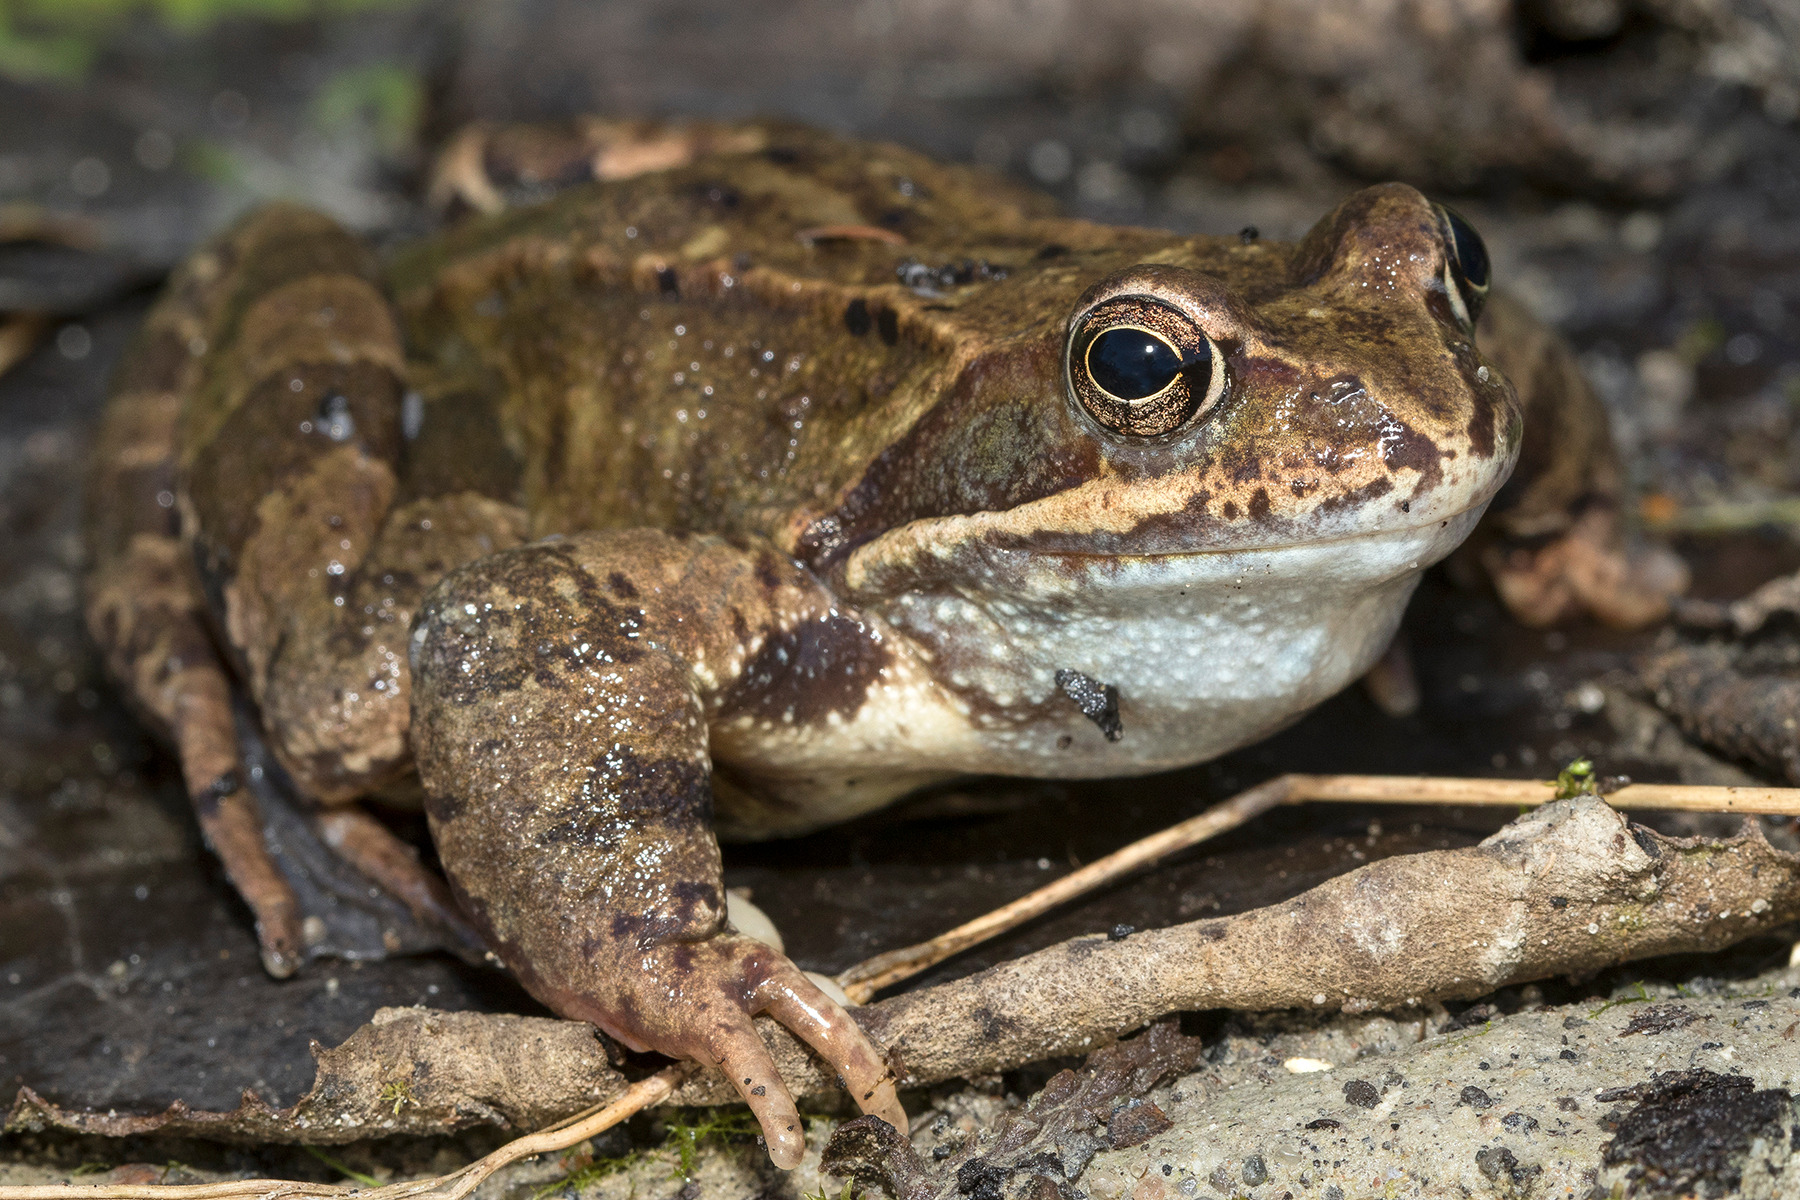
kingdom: Animalia
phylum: Chordata
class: Amphibia
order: Anura
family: Ranidae
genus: Rana
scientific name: Rana temporaria
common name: Butsnudet frø
